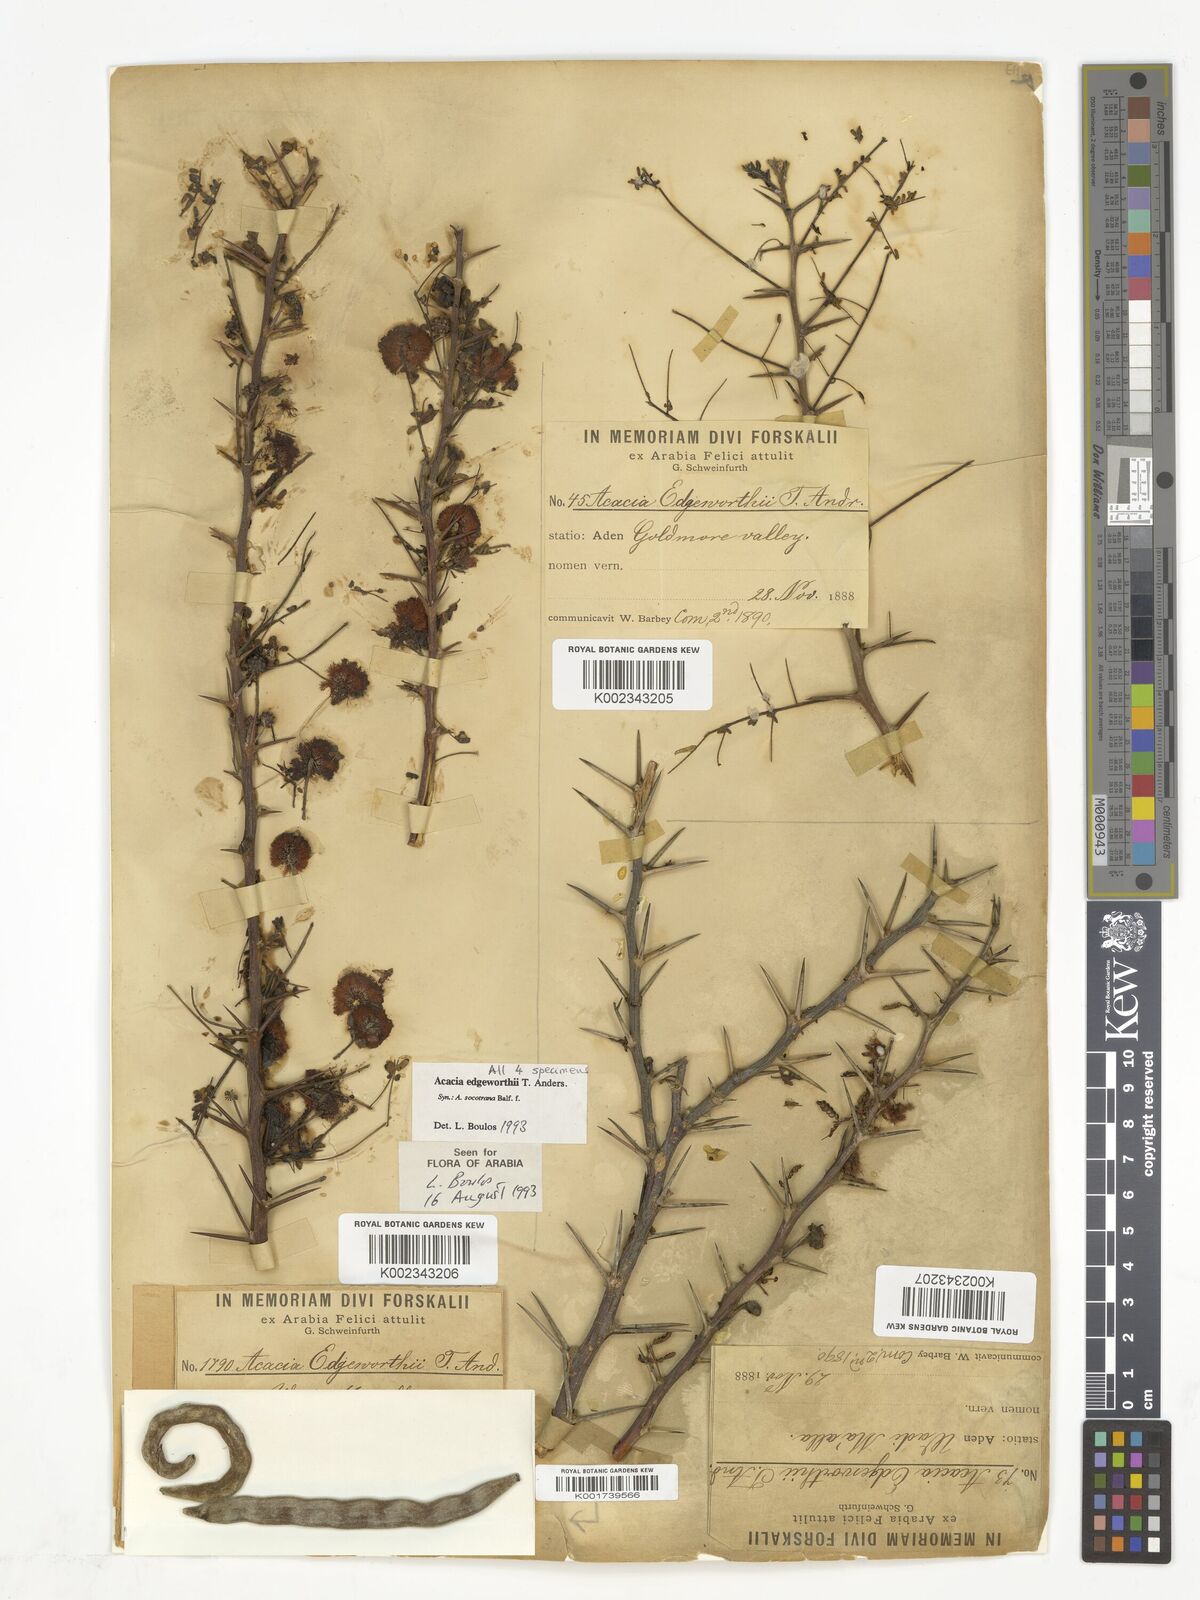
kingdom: Plantae
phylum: Tracheophyta
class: Magnoliopsida
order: Fabales
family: Fabaceae
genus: Vachellia
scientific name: Vachellia edgeworthii
